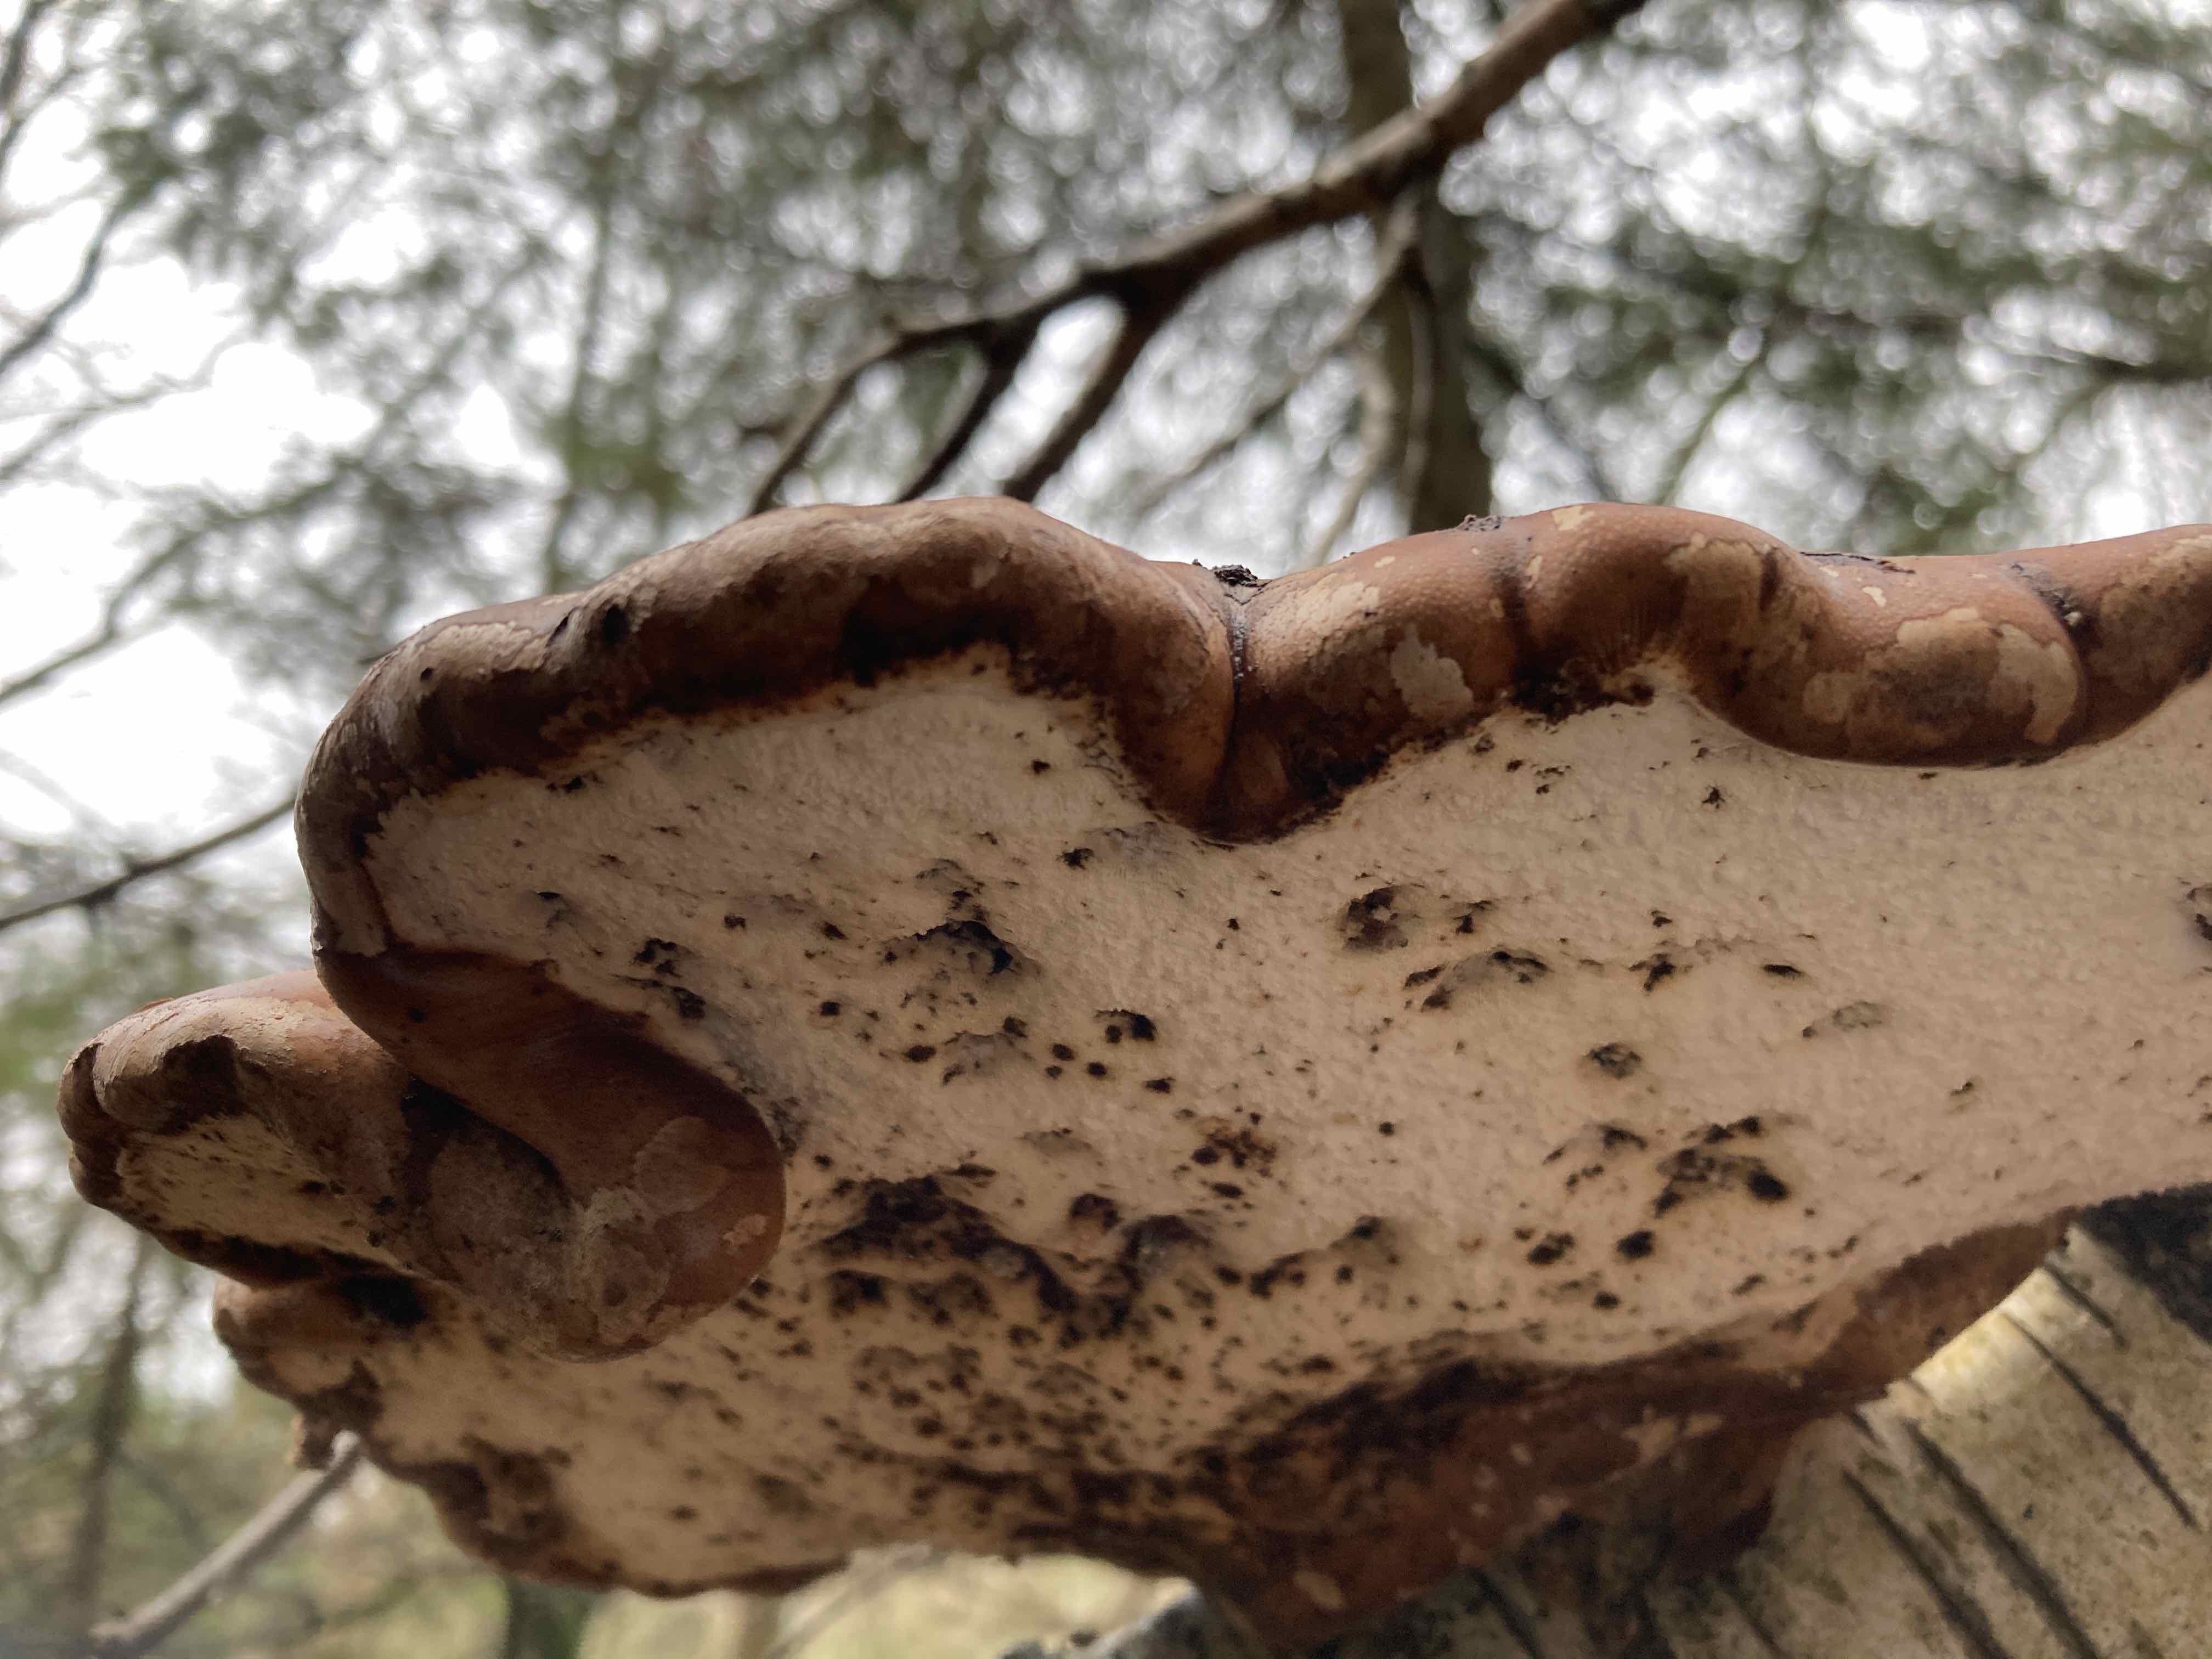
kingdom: Fungi
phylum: Basidiomycota
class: Agaricomycetes
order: Polyporales
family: Fomitopsidaceae
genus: Fomitopsis
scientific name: Fomitopsis betulina
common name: birkeporesvamp
